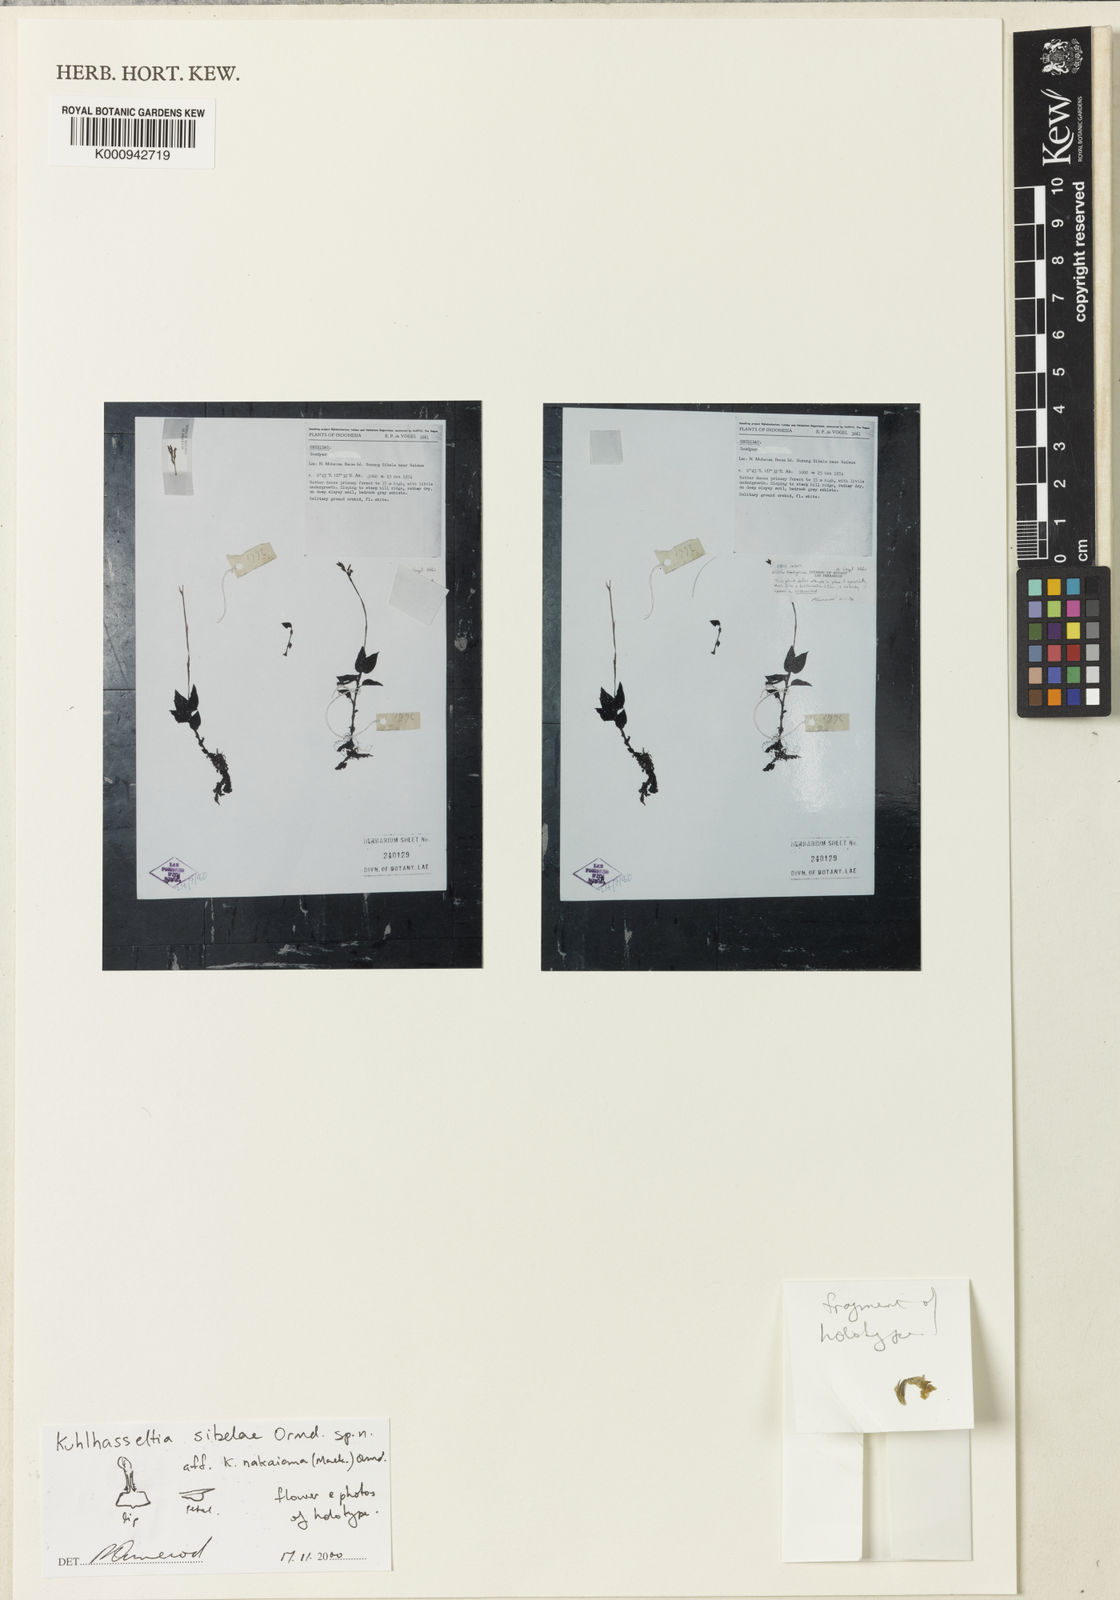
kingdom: Plantae
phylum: Tracheophyta
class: Liliopsida
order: Asparagales
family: Orchidaceae
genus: Odontochilus
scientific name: Odontochilus sibelae
